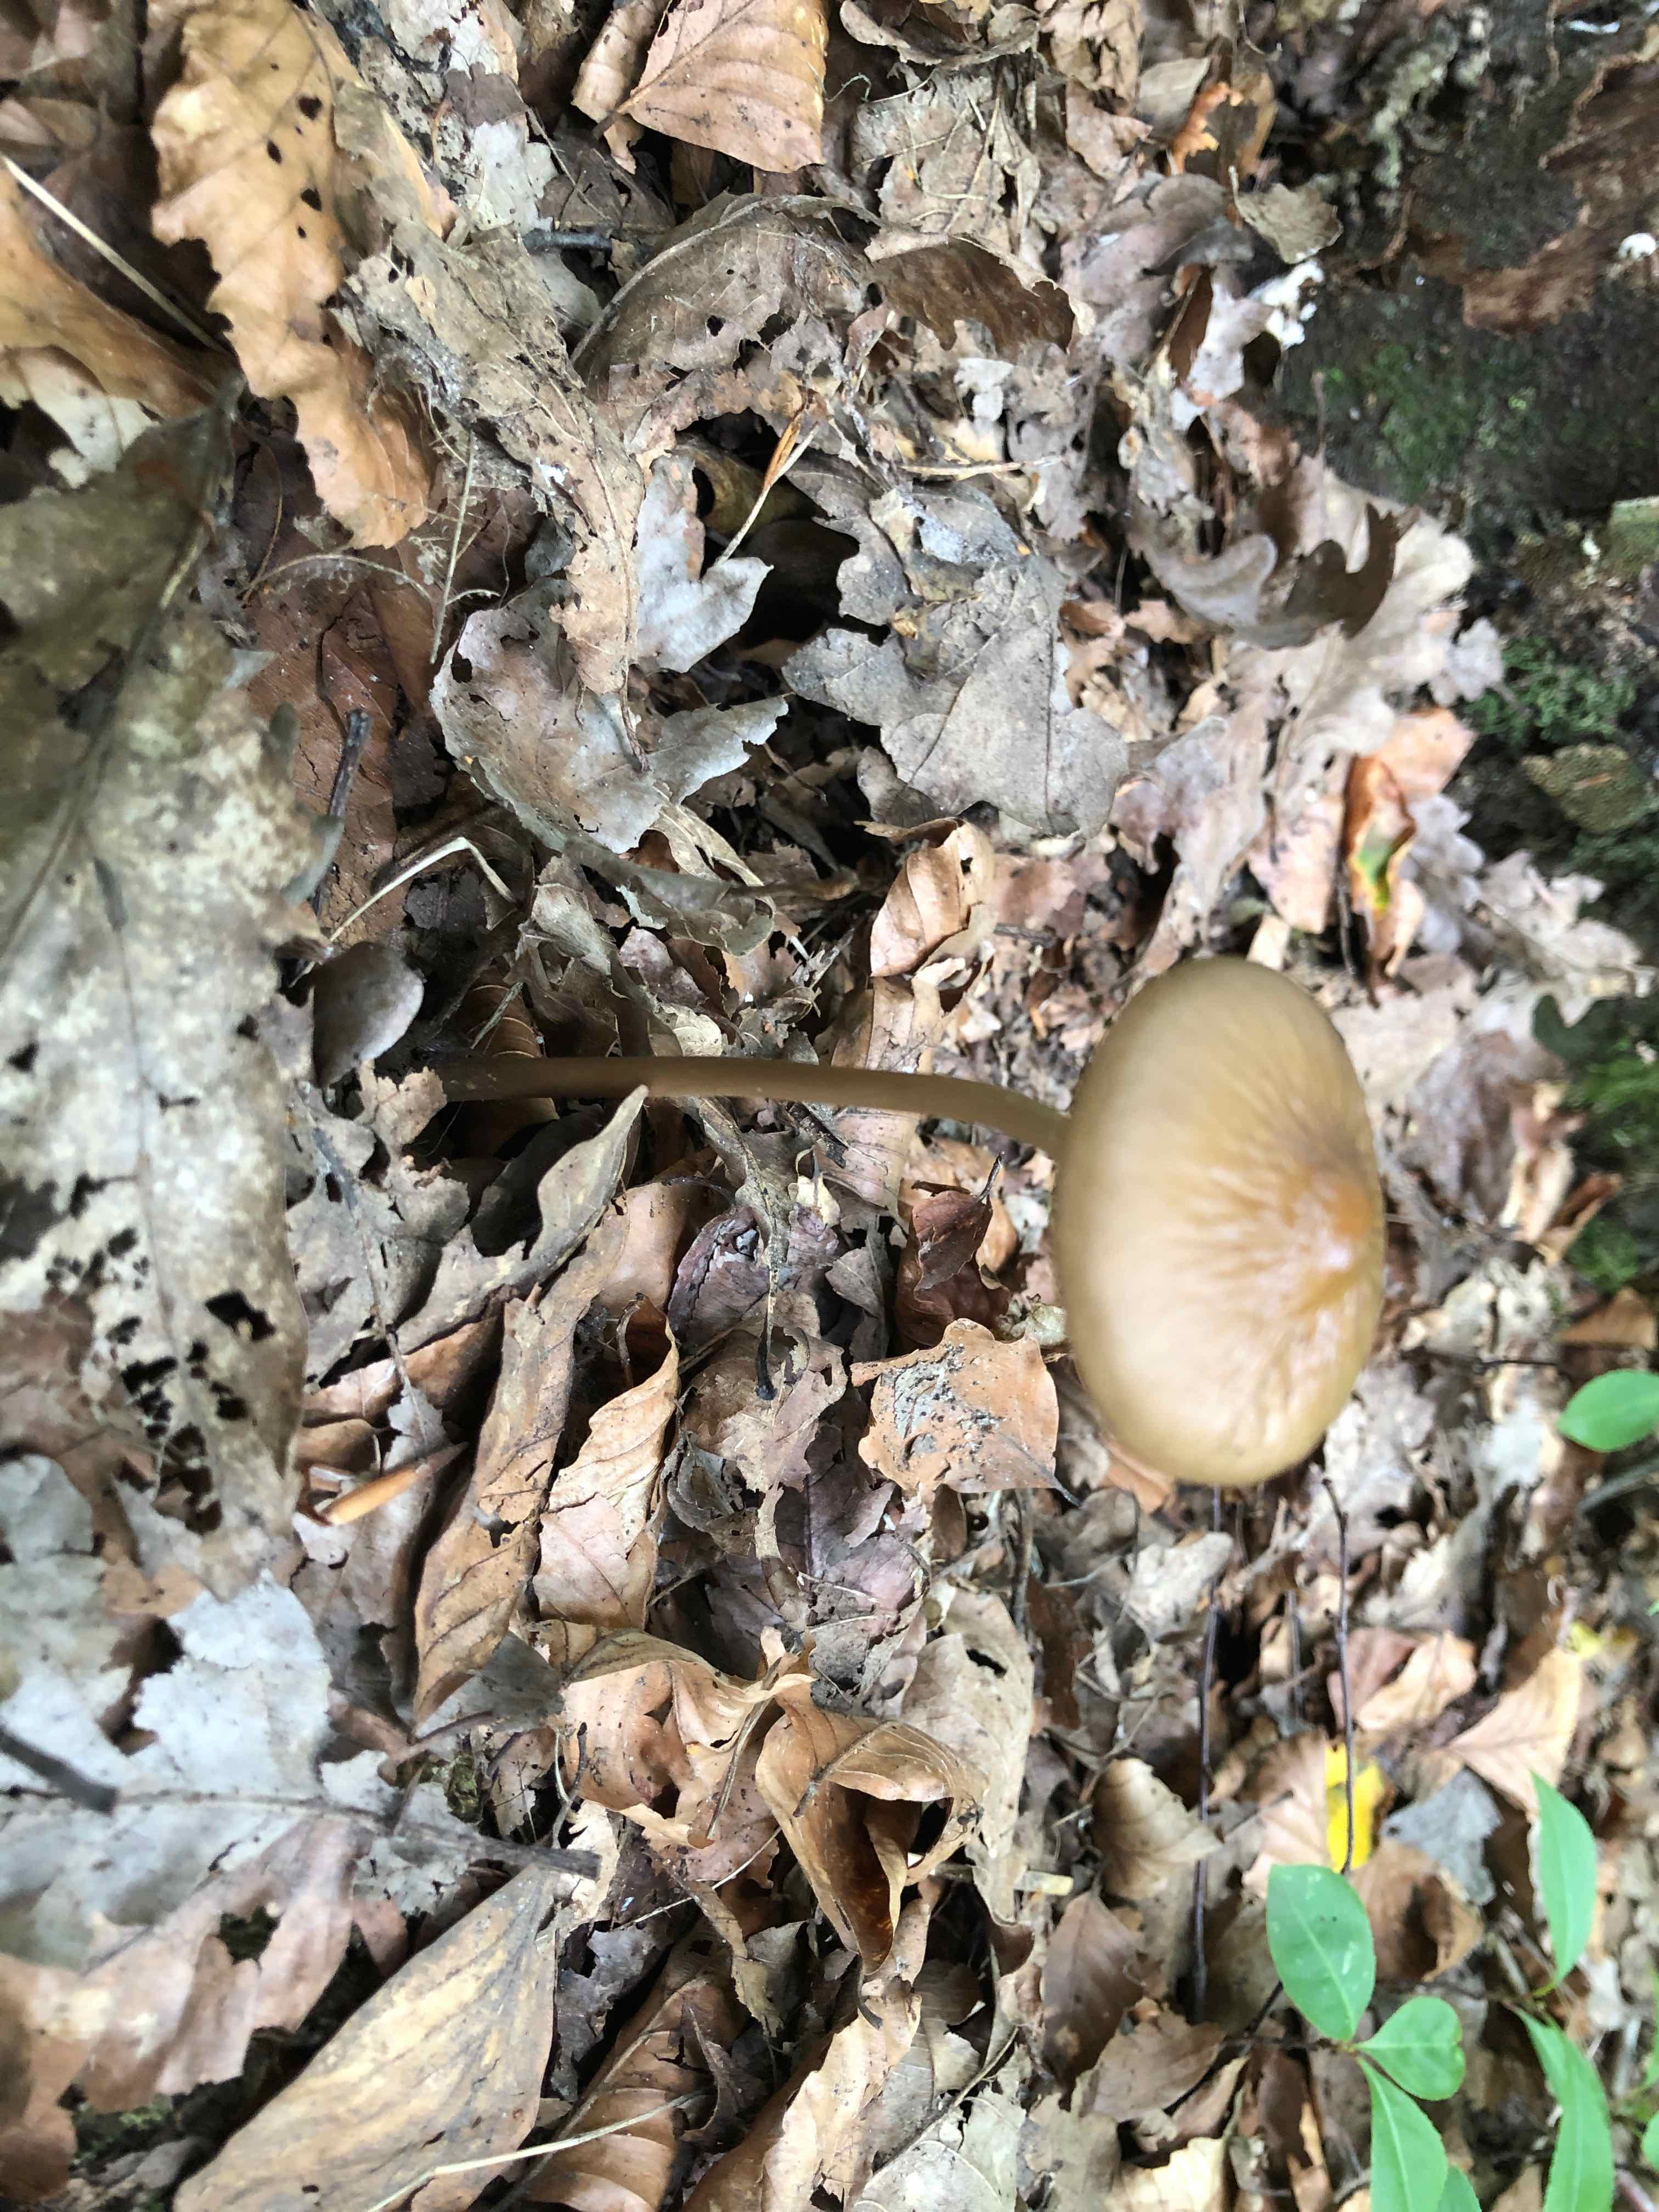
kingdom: Fungi
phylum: Basidiomycota
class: Agaricomycetes
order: Agaricales
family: Physalacriaceae
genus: Hymenopellis
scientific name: Hymenopellis radicata
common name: almindelig pælerodshat
